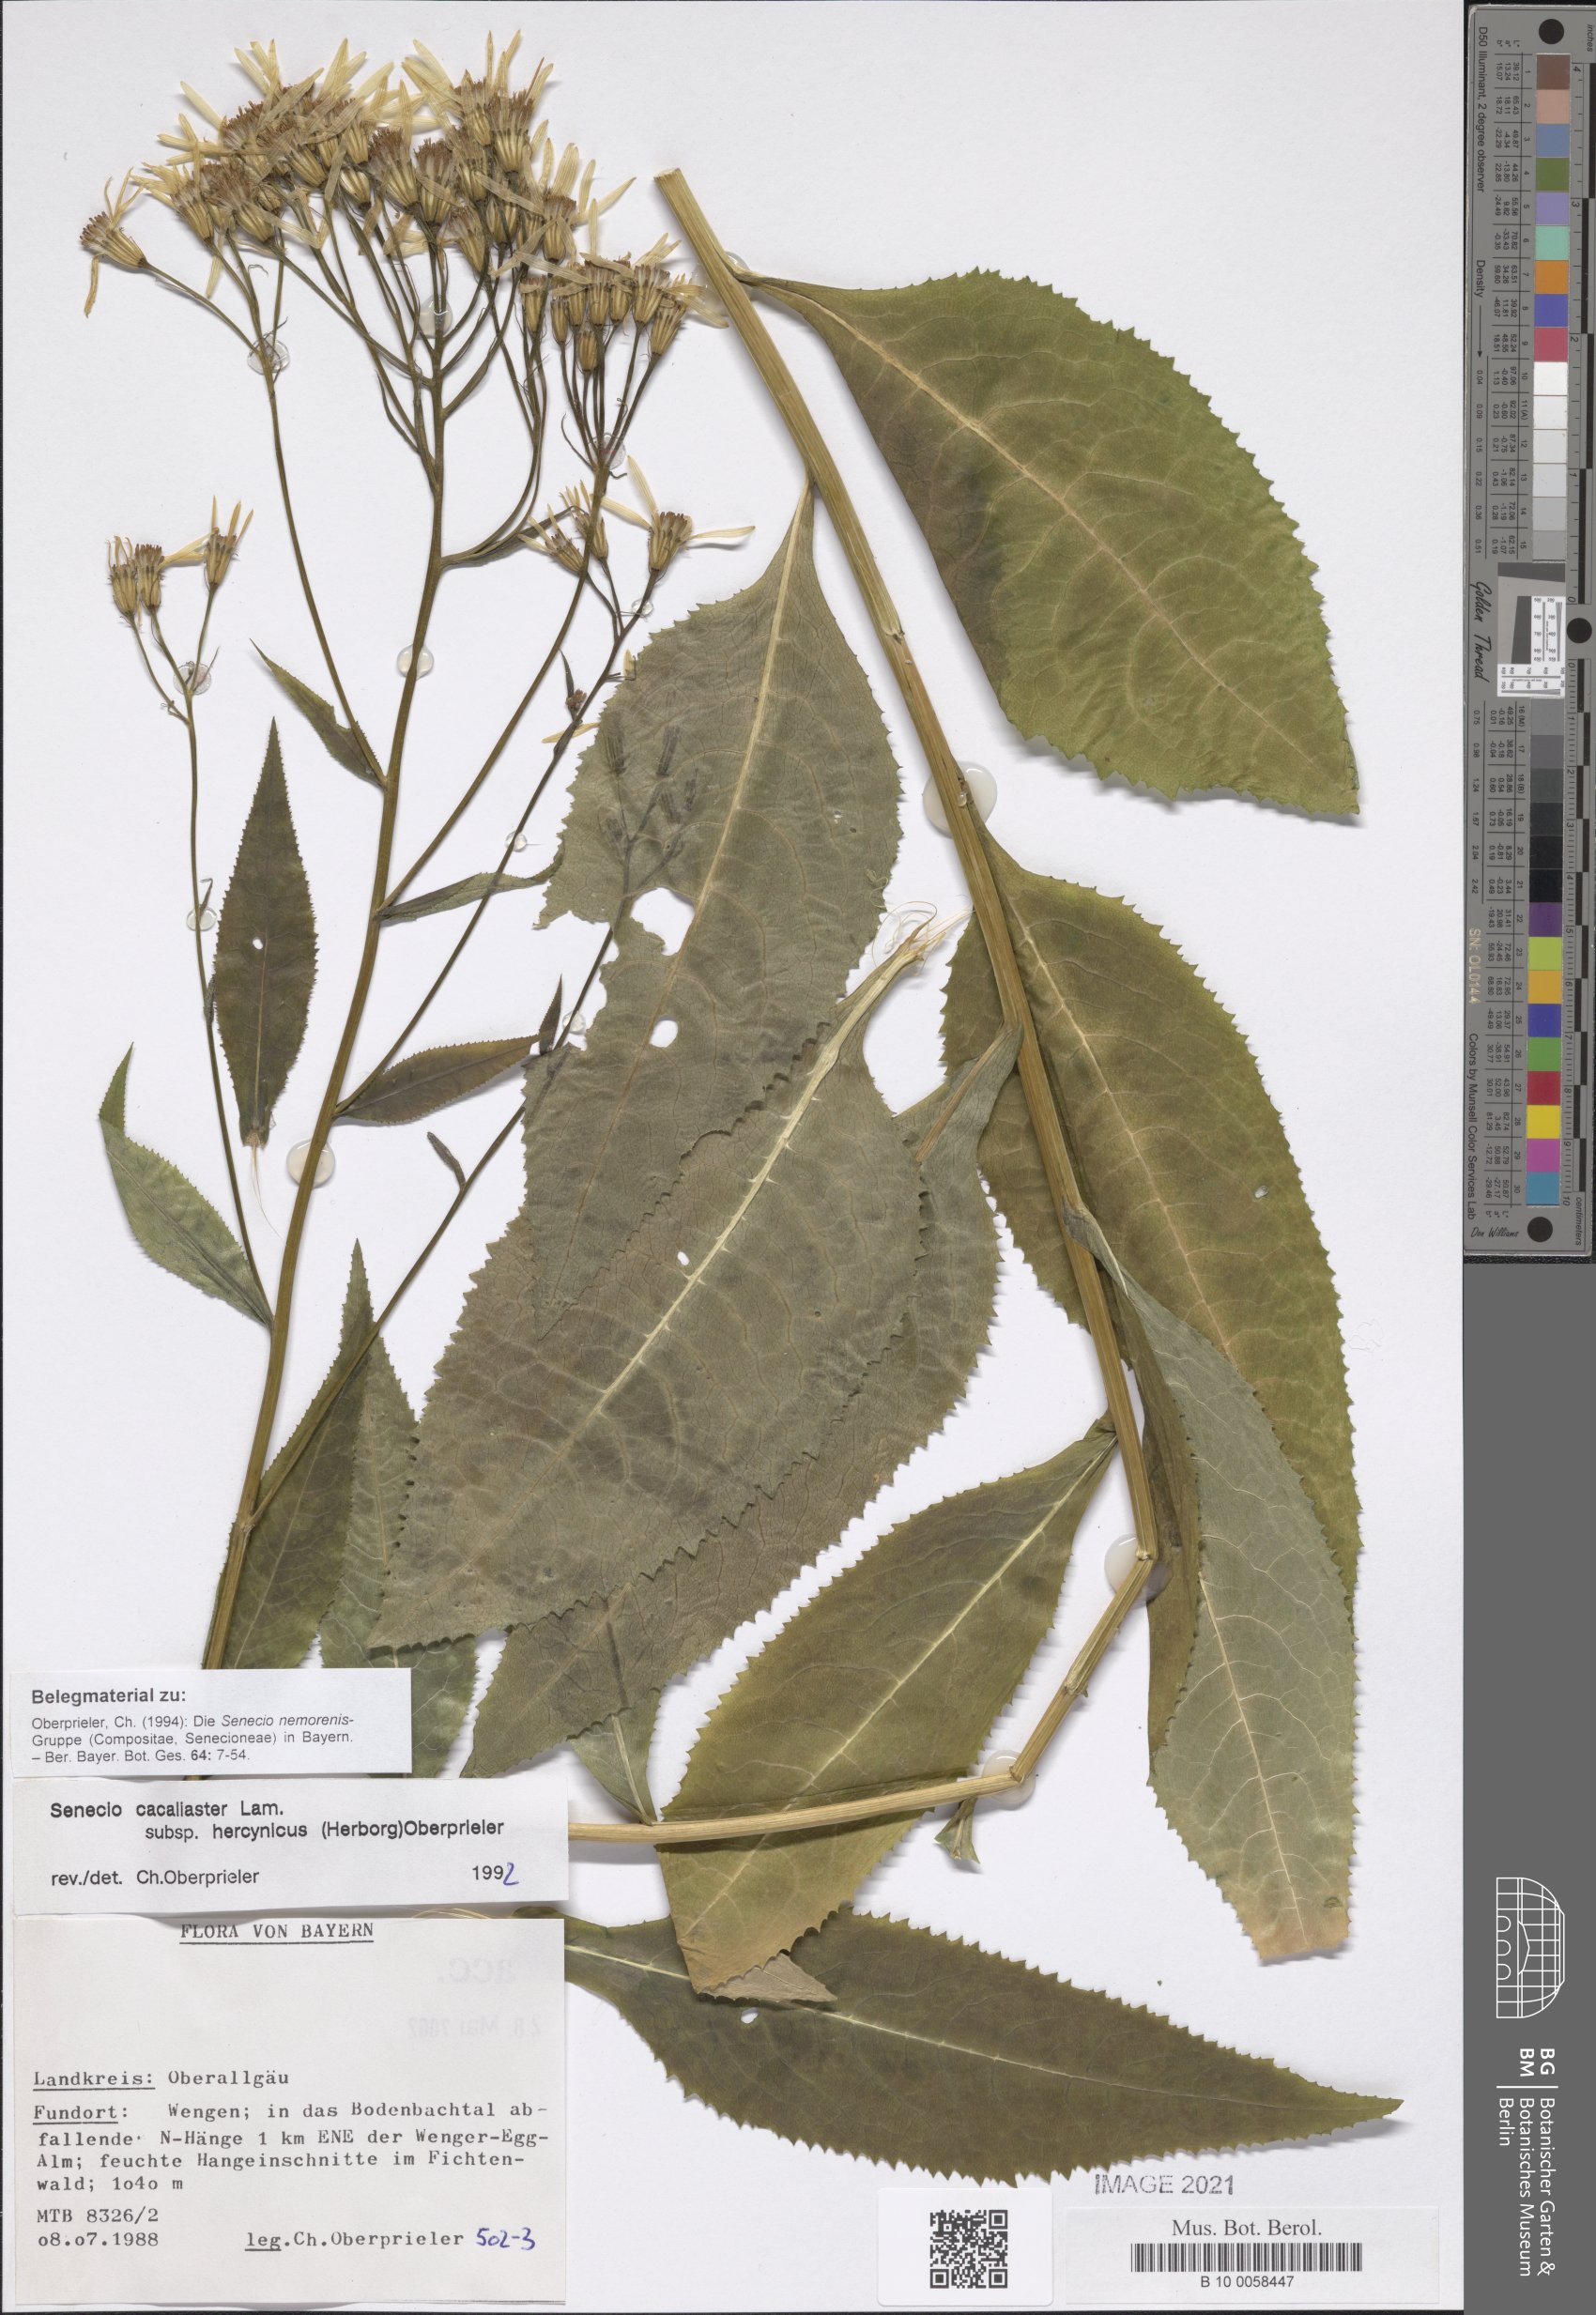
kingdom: Plantae
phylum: Tracheophyta
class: Magnoliopsida
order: Asterales
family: Asteraceae
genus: Senecio
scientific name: Senecio hercynicus
